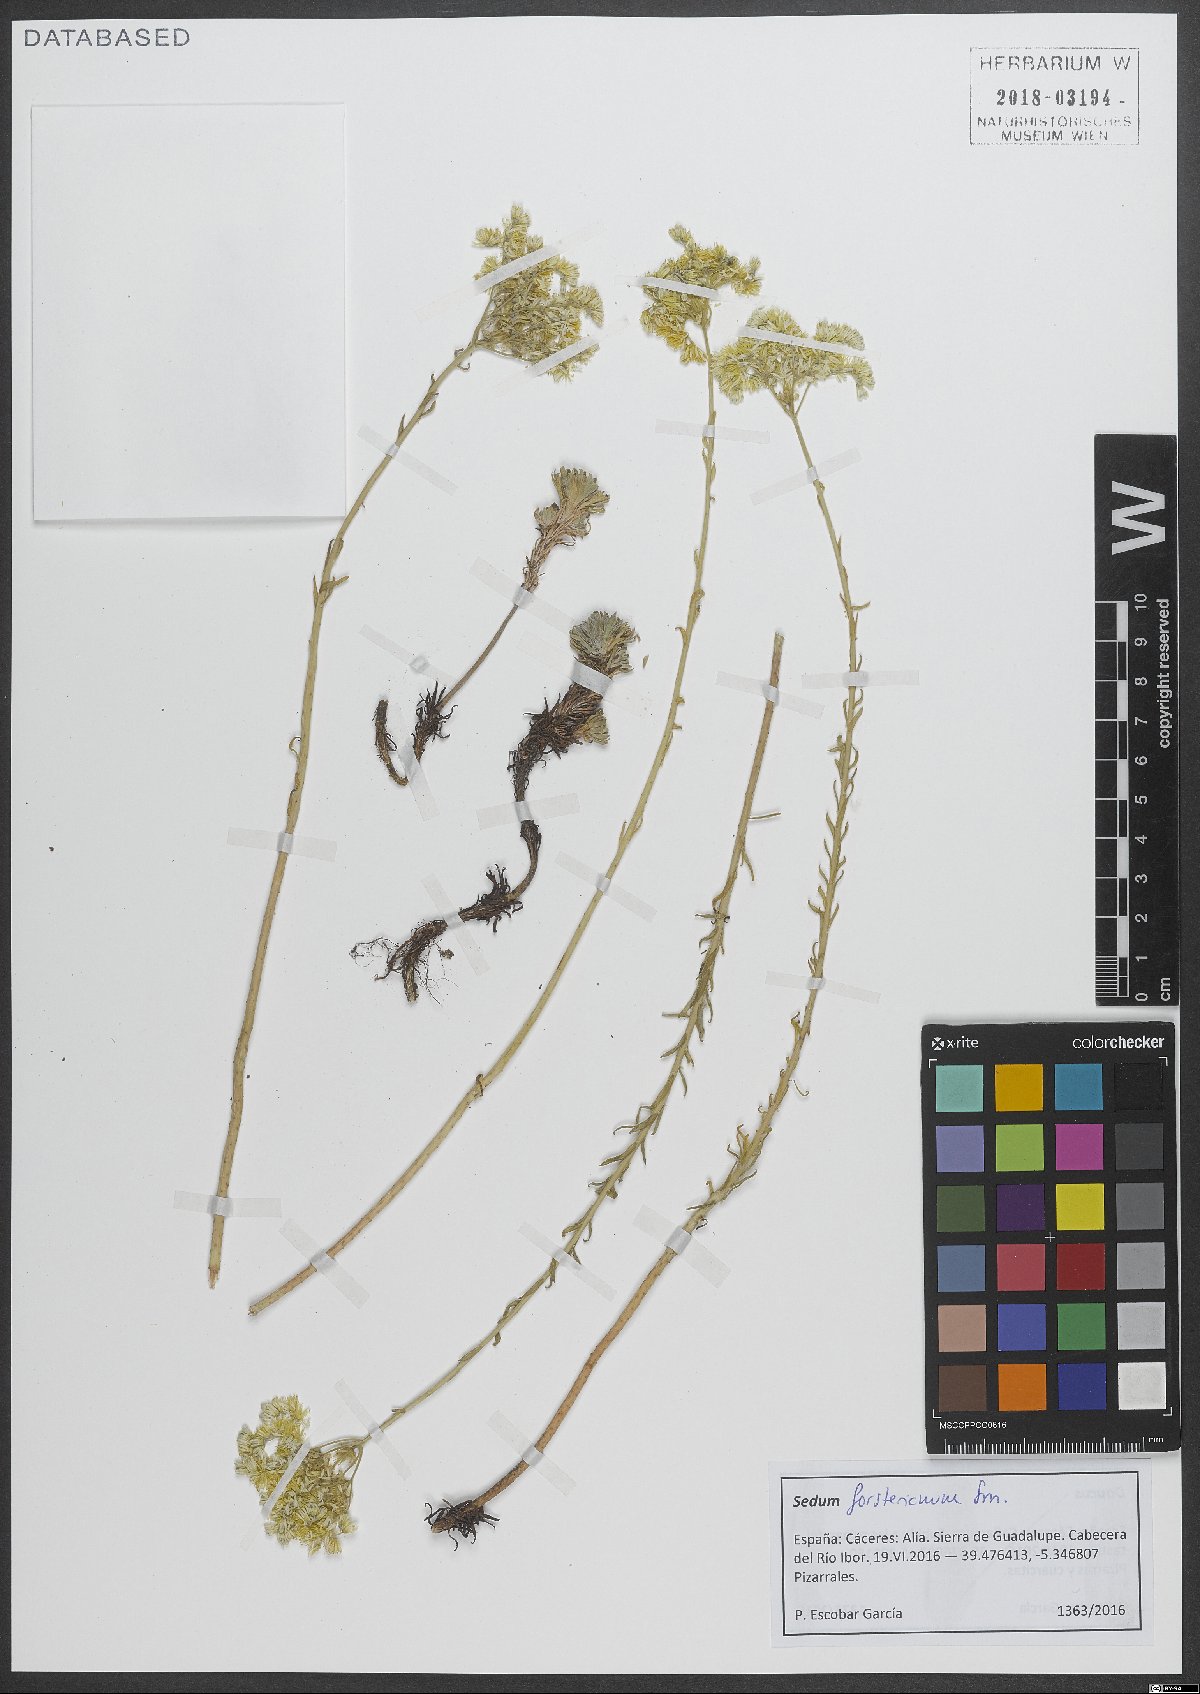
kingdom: Plantae
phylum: Tracheophyta
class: Magnoliopsida
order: Saxifragales
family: Crassulaceae
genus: Petrosedum
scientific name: Petrosedum forsterianum
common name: Forster's stonecrop
